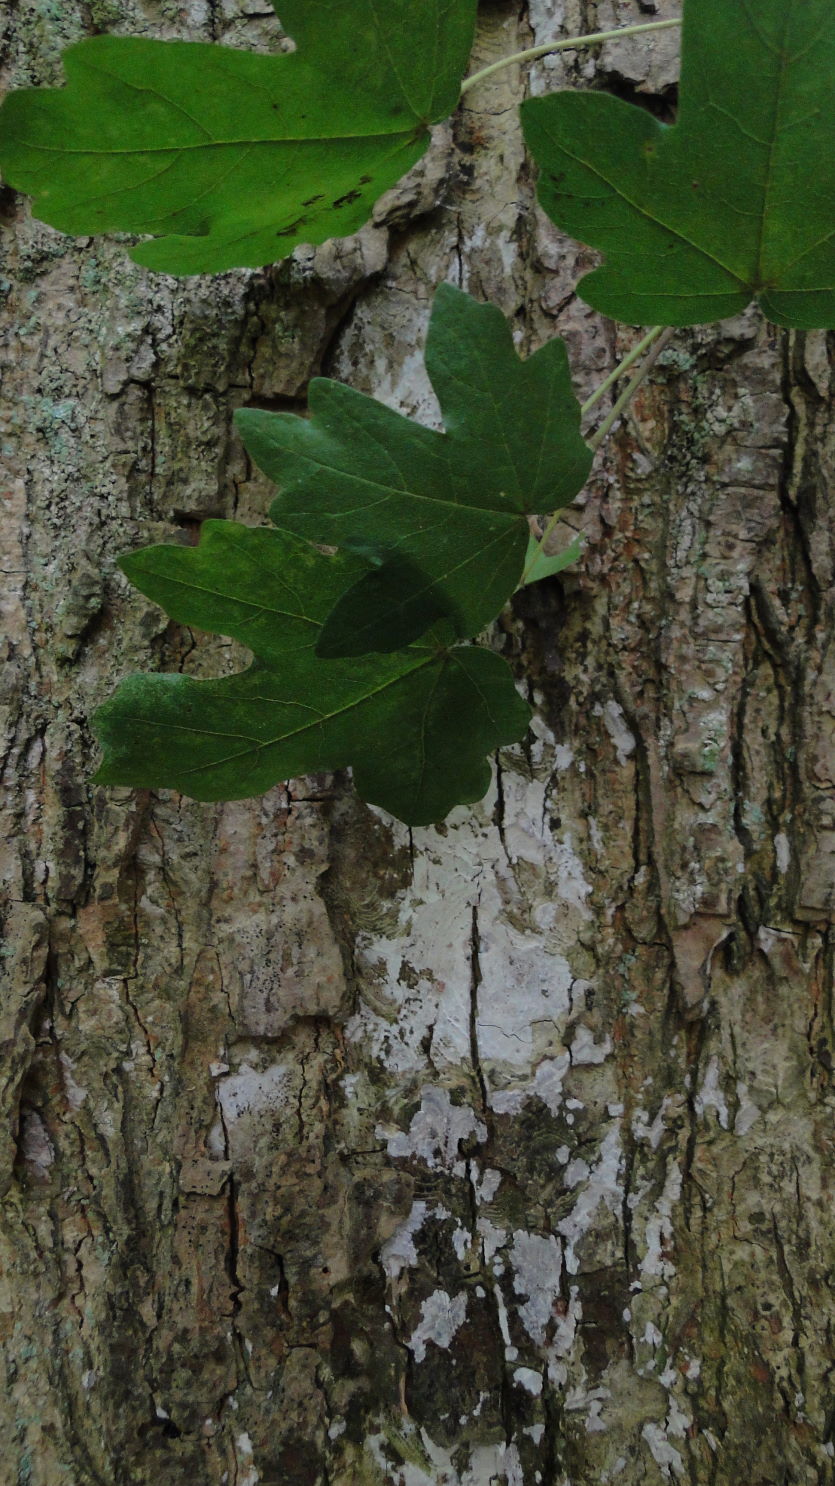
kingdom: Fungi
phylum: Basidiomycota
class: Agaricomycetes
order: Agaricales
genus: Dendrothele
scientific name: Dendrothele acerina
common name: navr-kalkplet
